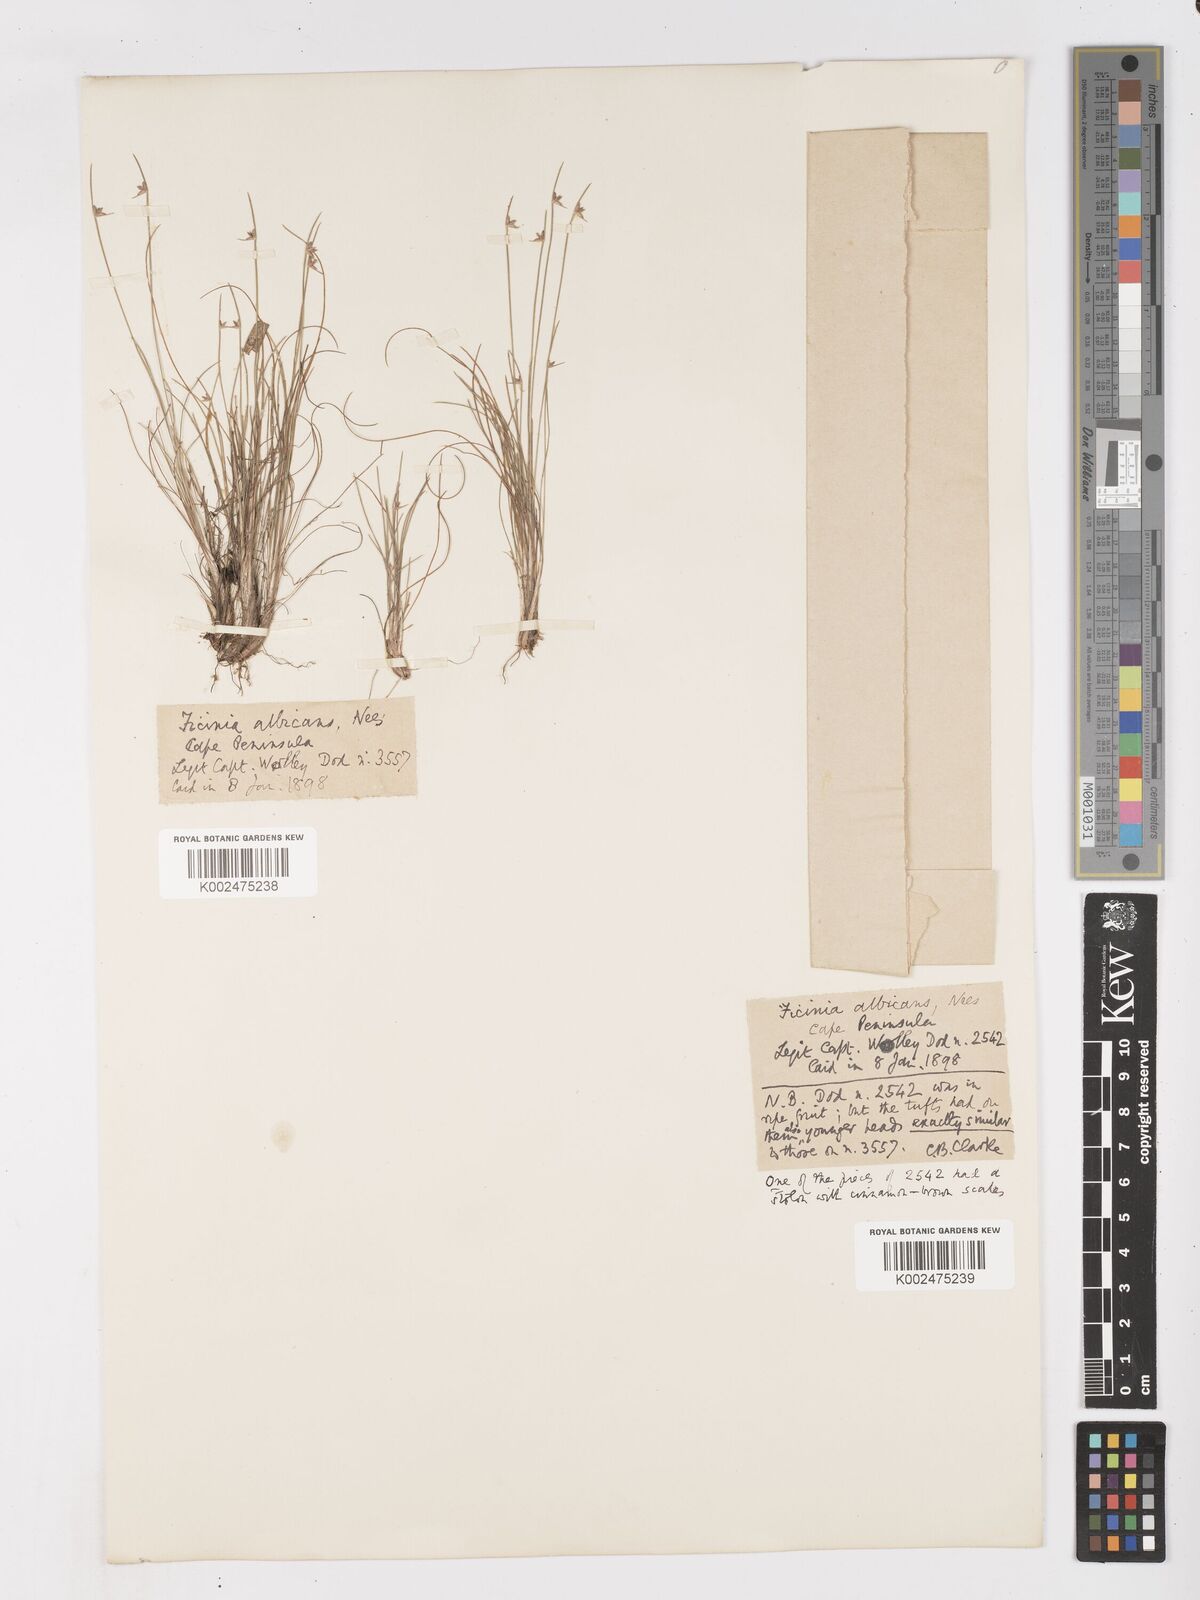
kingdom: Plantae
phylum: Tracheophyta
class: Liliopsida
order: Poales
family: Cyperaceae
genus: Ficinia
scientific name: Ficinia albicans
